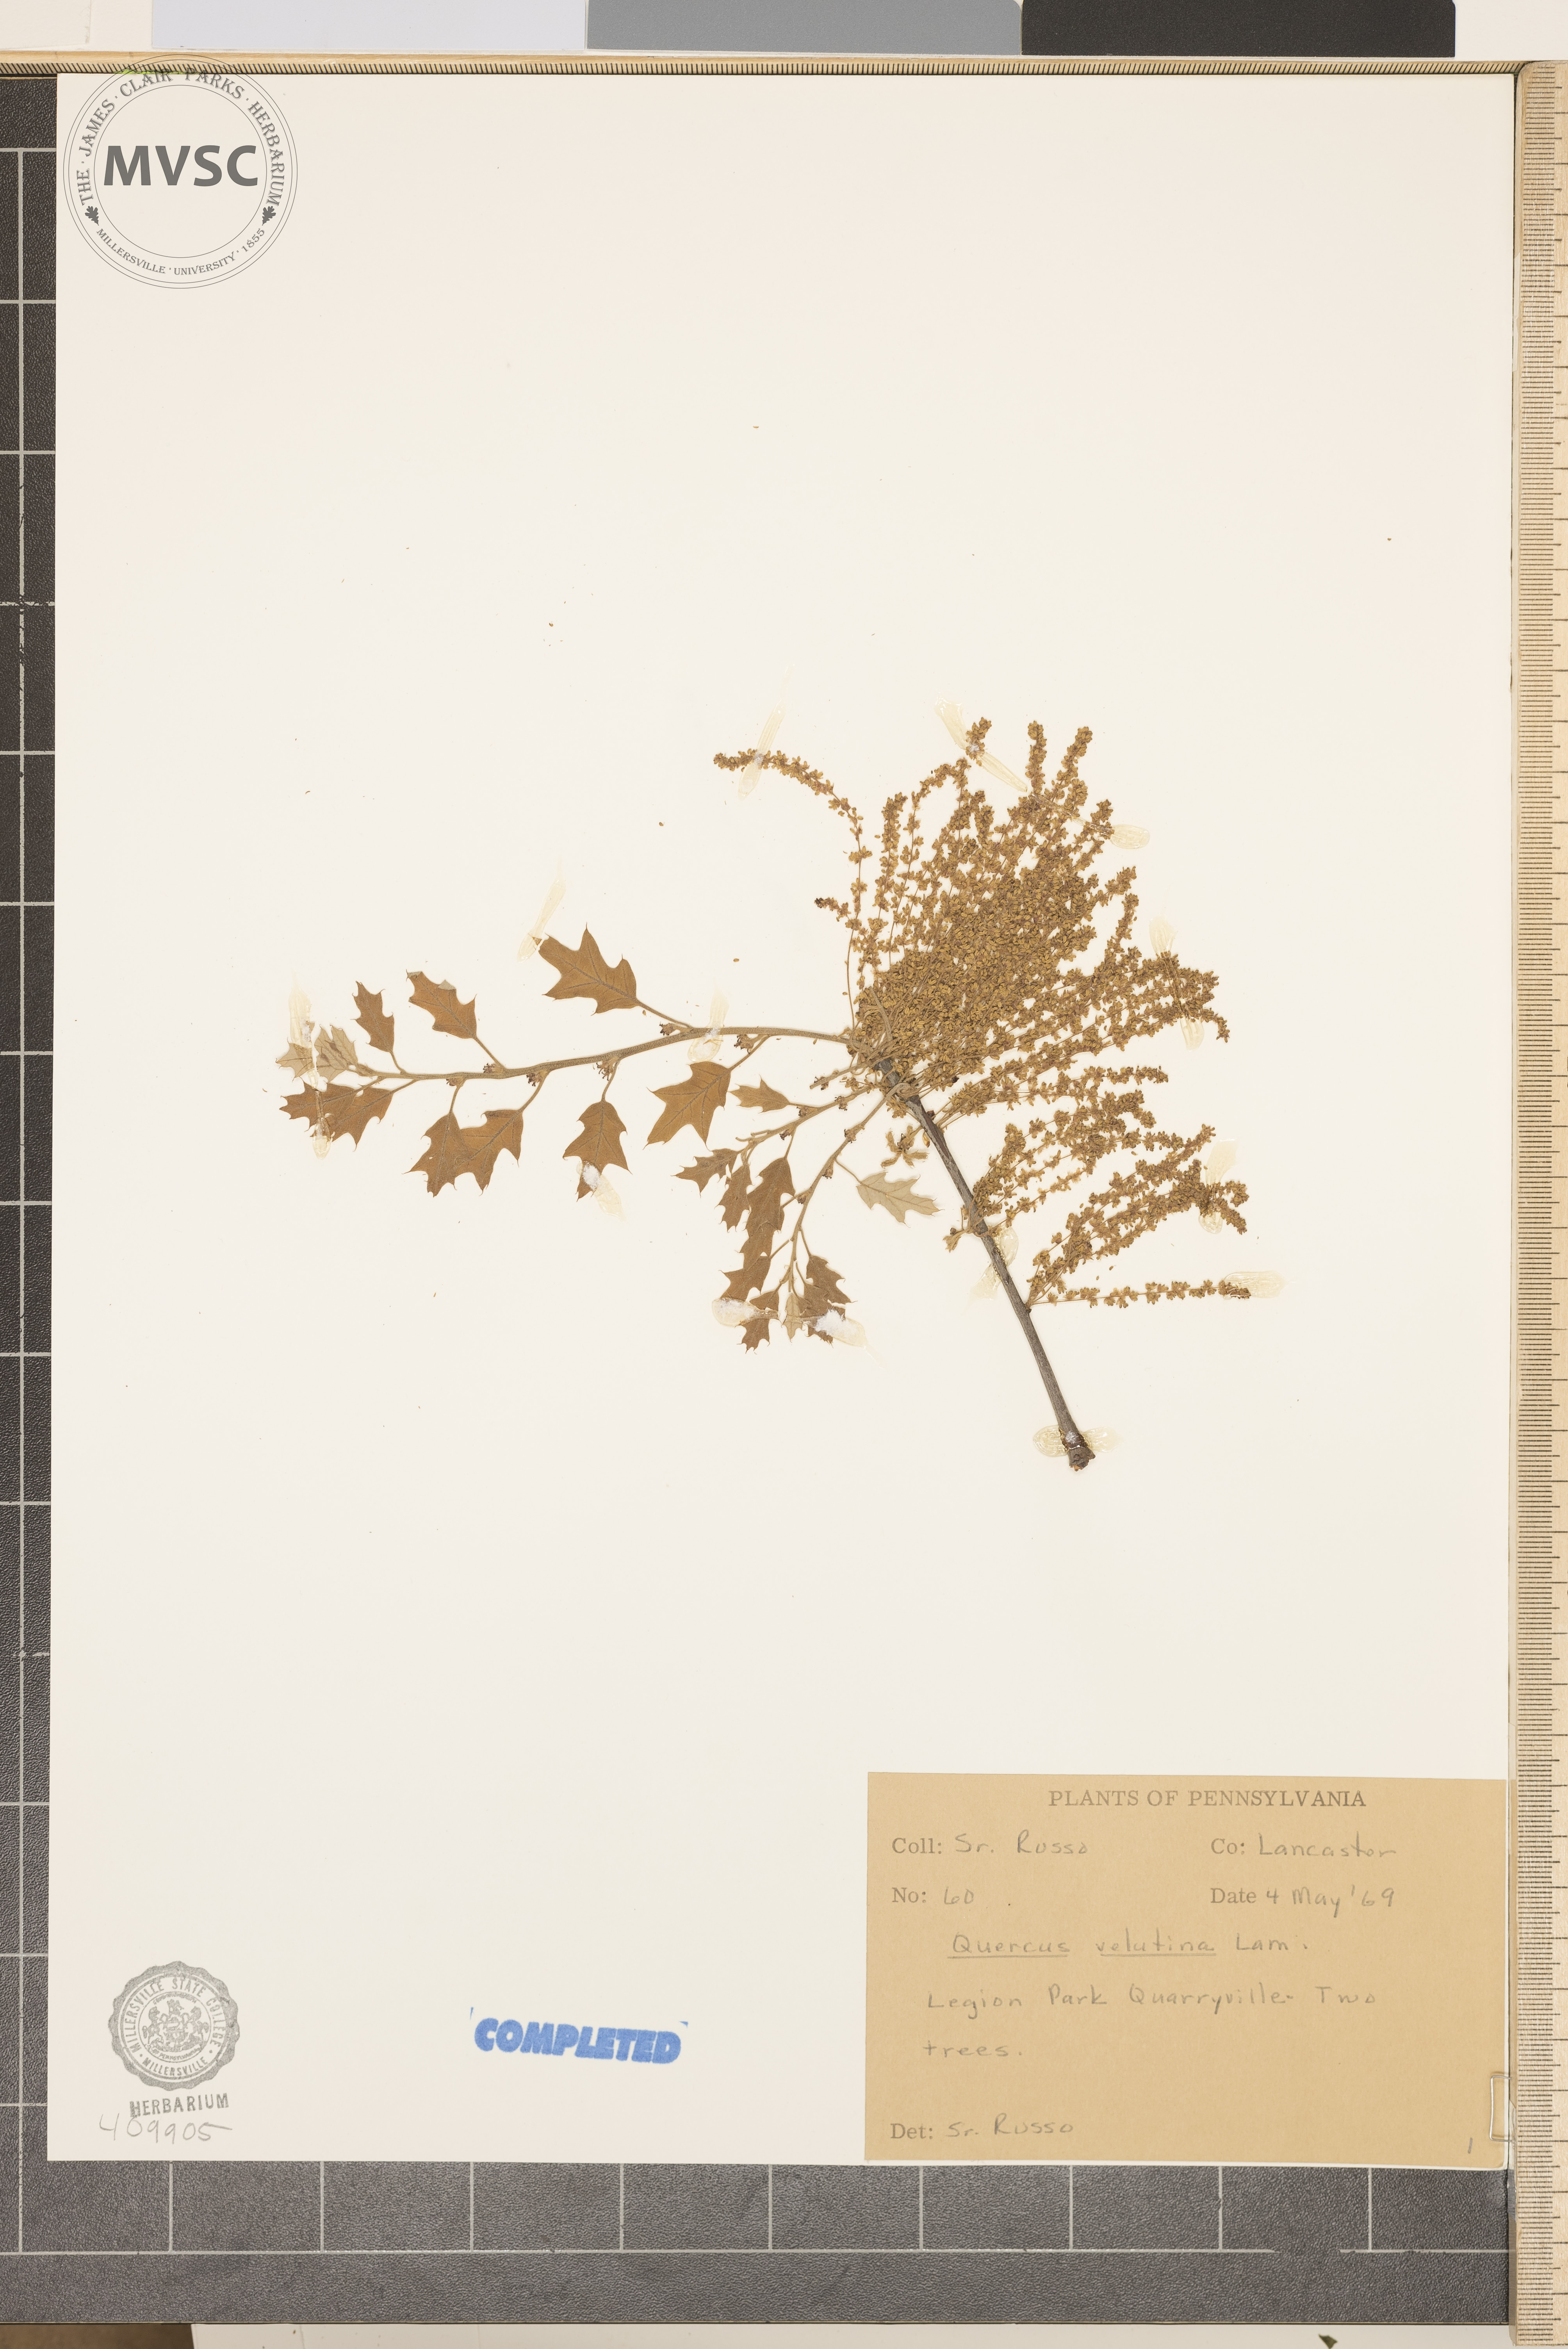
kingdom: Plantae
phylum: Tracheophyta
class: Magnoliopsida
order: Fagales
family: Fagaceae
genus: Quercus
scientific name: Quercus velutina
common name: Black oak
